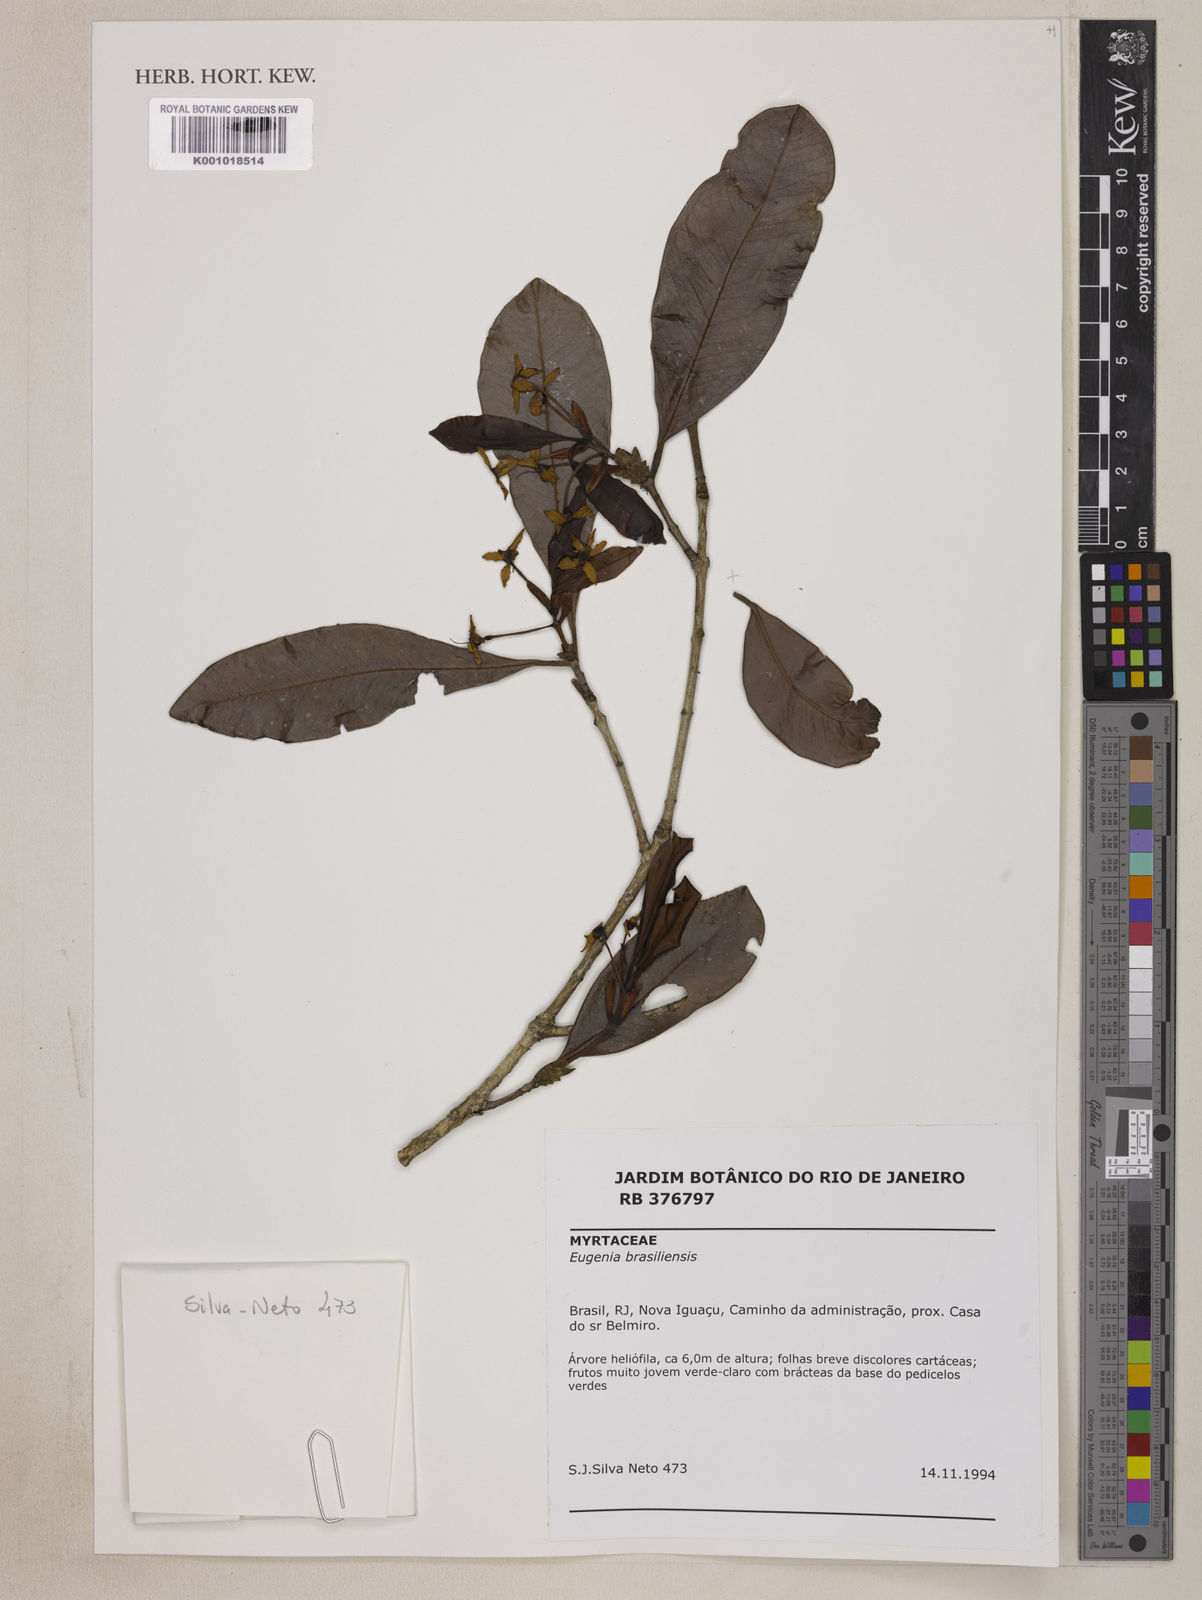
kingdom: Plantae
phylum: Tracheophyta
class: Magnoliopsida
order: Myrtales
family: Myrtaceae
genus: Eugenia
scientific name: Eugenia brasiliensis
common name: Grumichama
